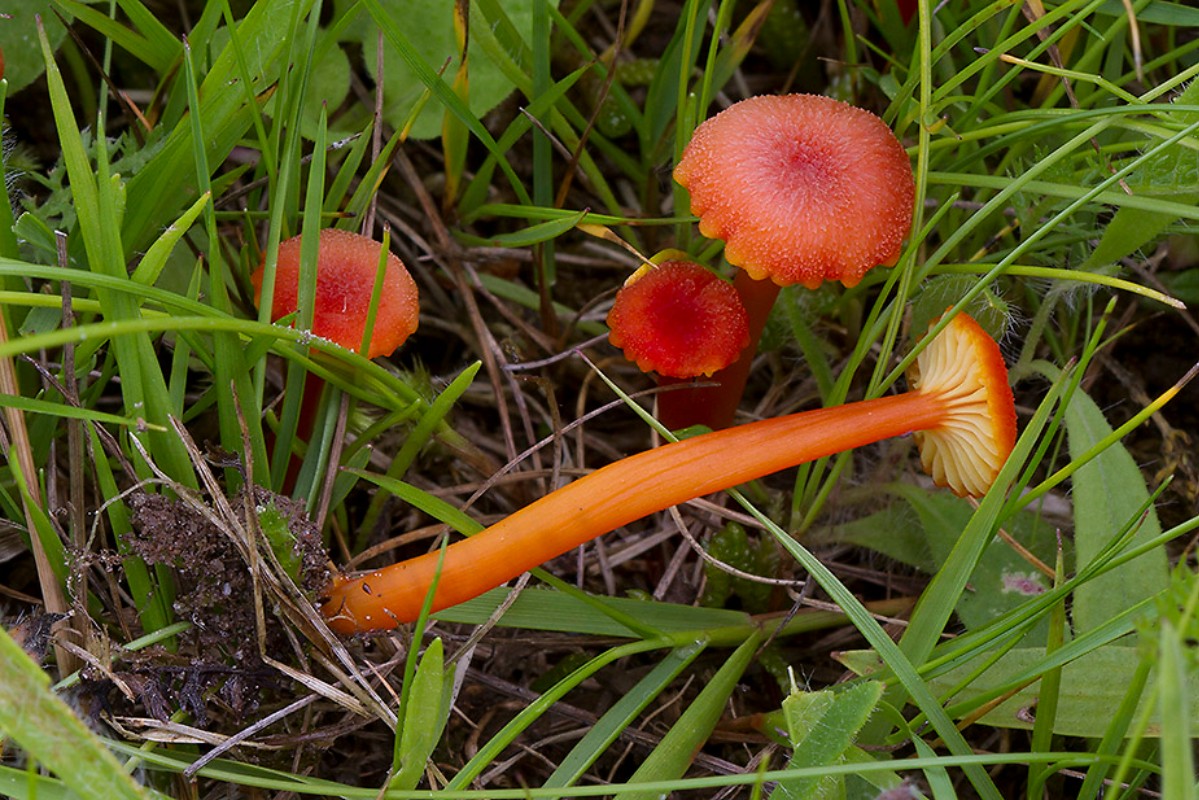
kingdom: Fungi
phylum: Basidiomycota
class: Agaricomycetes
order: Agaricales
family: Hygrophoraceae
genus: Hygrocybe
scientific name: Hygrocybe cantharellus
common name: kantarel-vokshat
